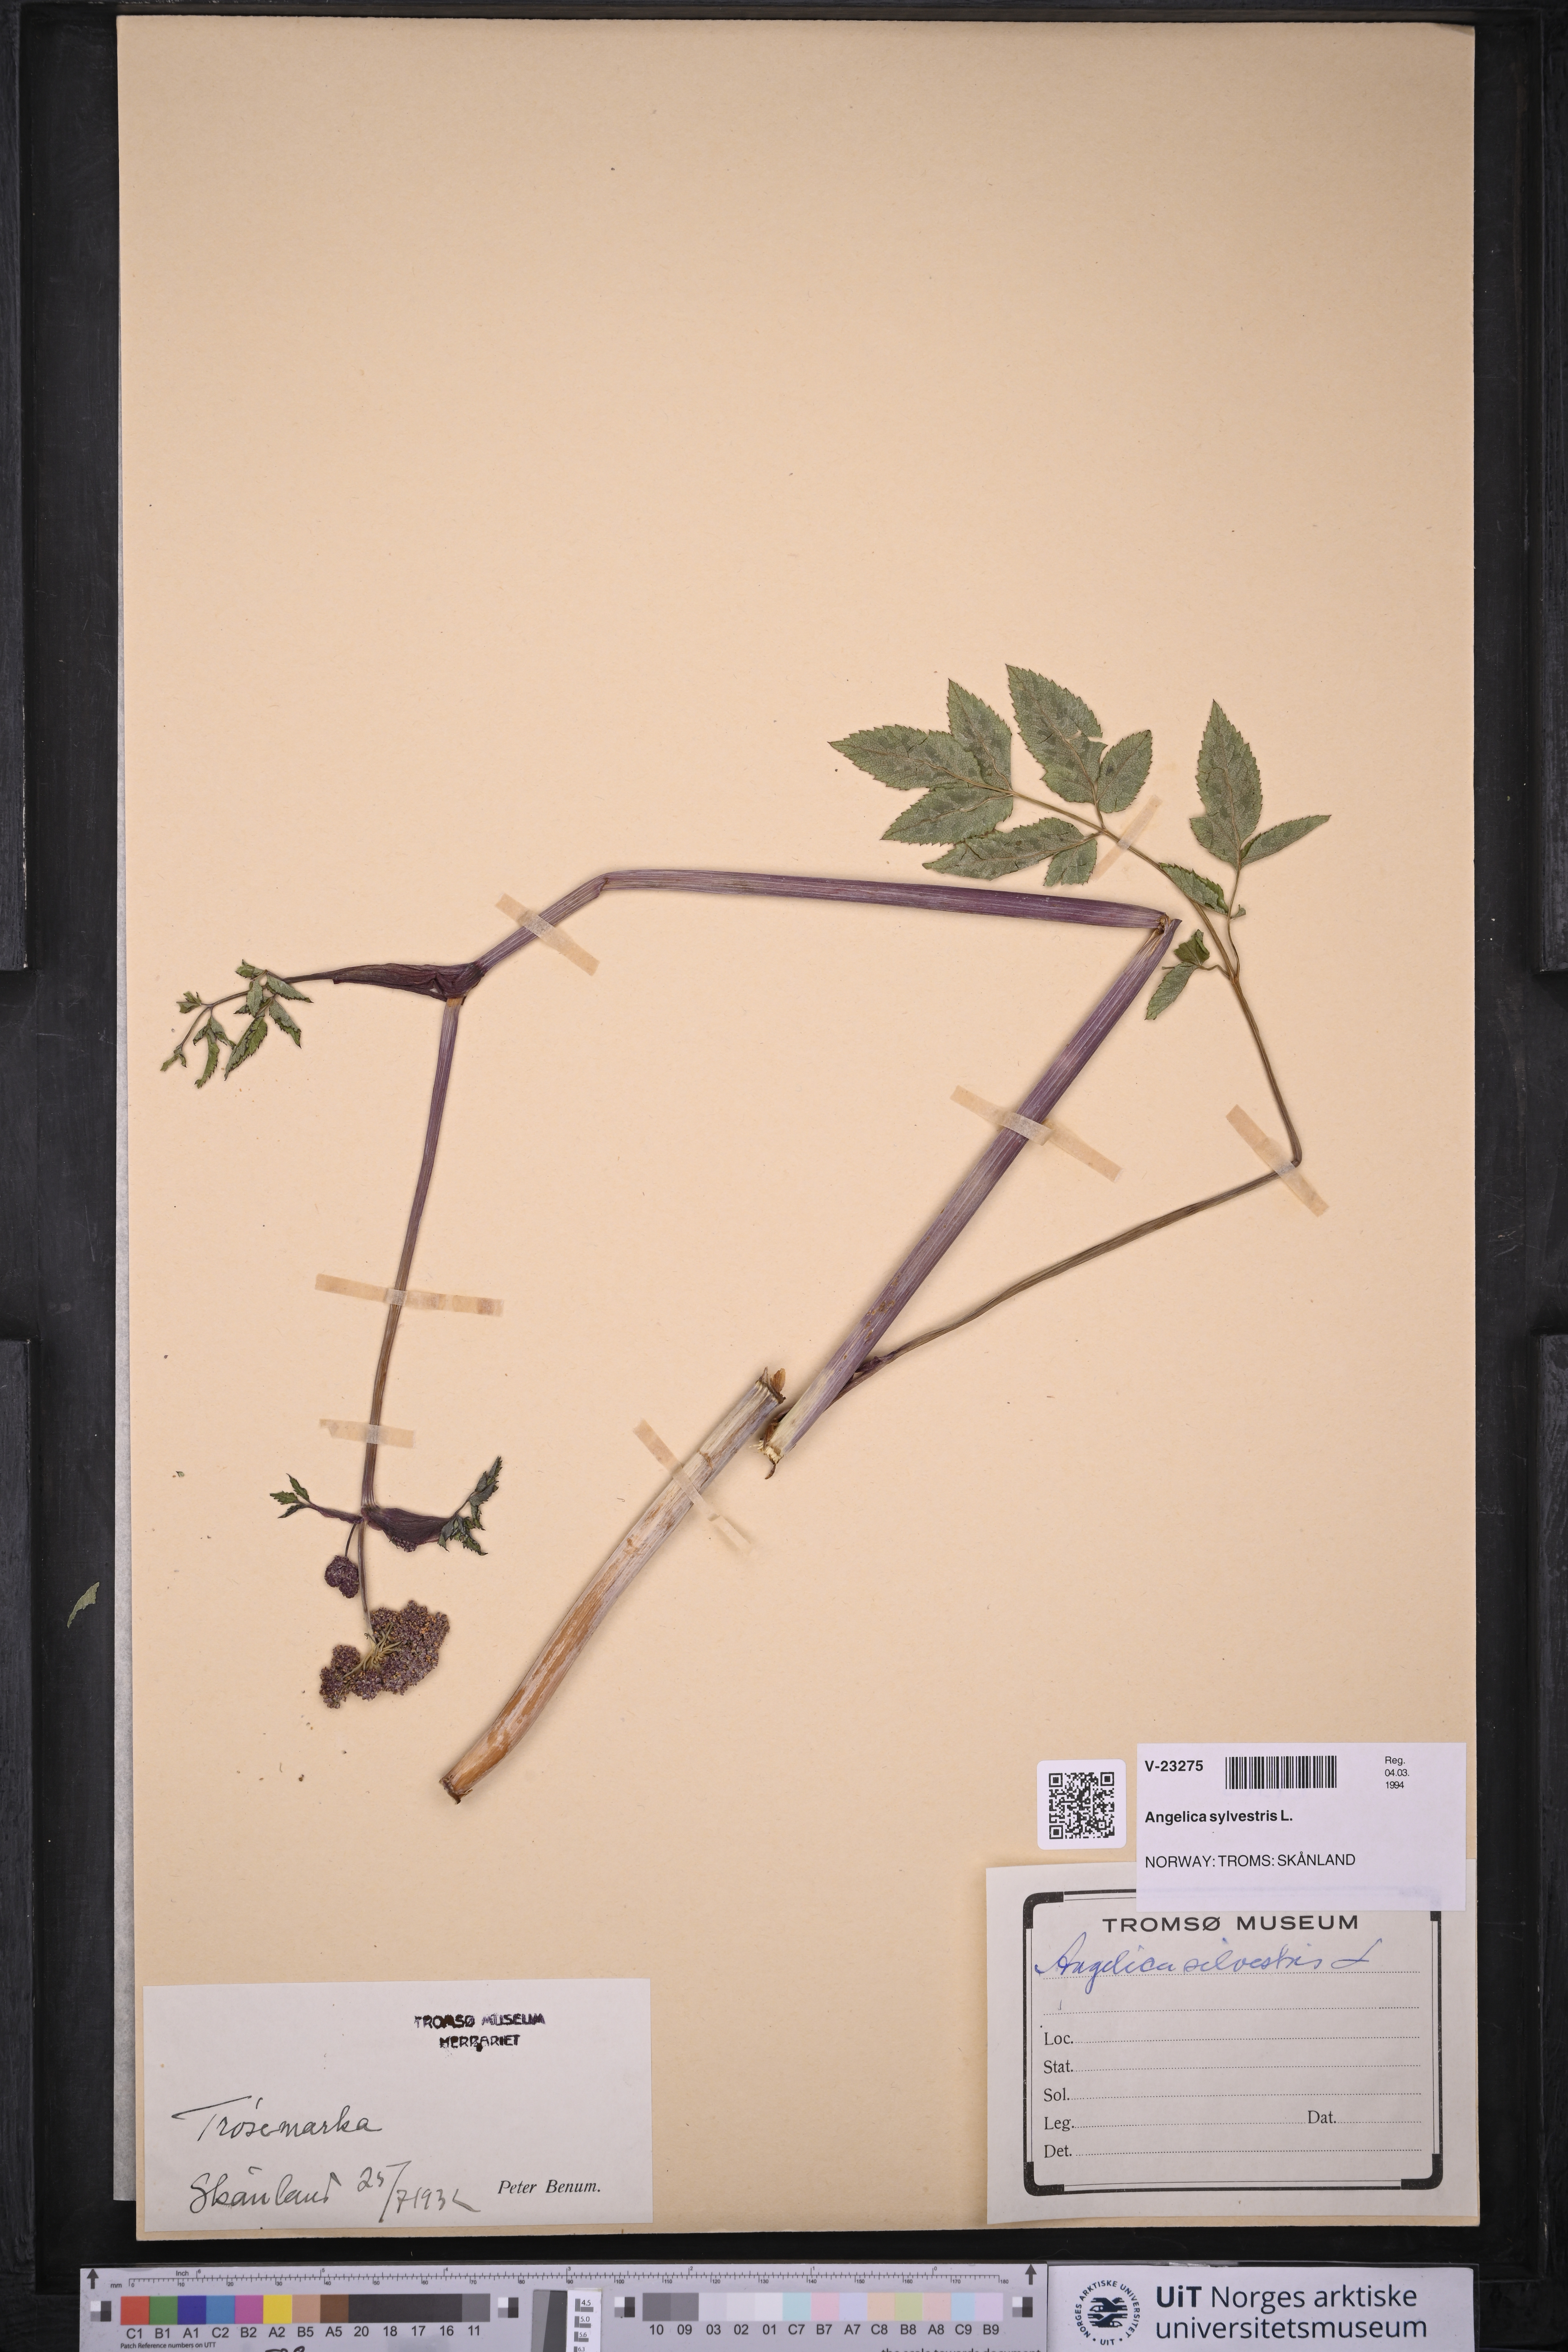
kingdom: Plantae
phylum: Tracheophyta
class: Magnoliopsida
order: Apiales
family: Apiaceae
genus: Angelica
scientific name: Angelica sylvestris
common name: Wild angelica
